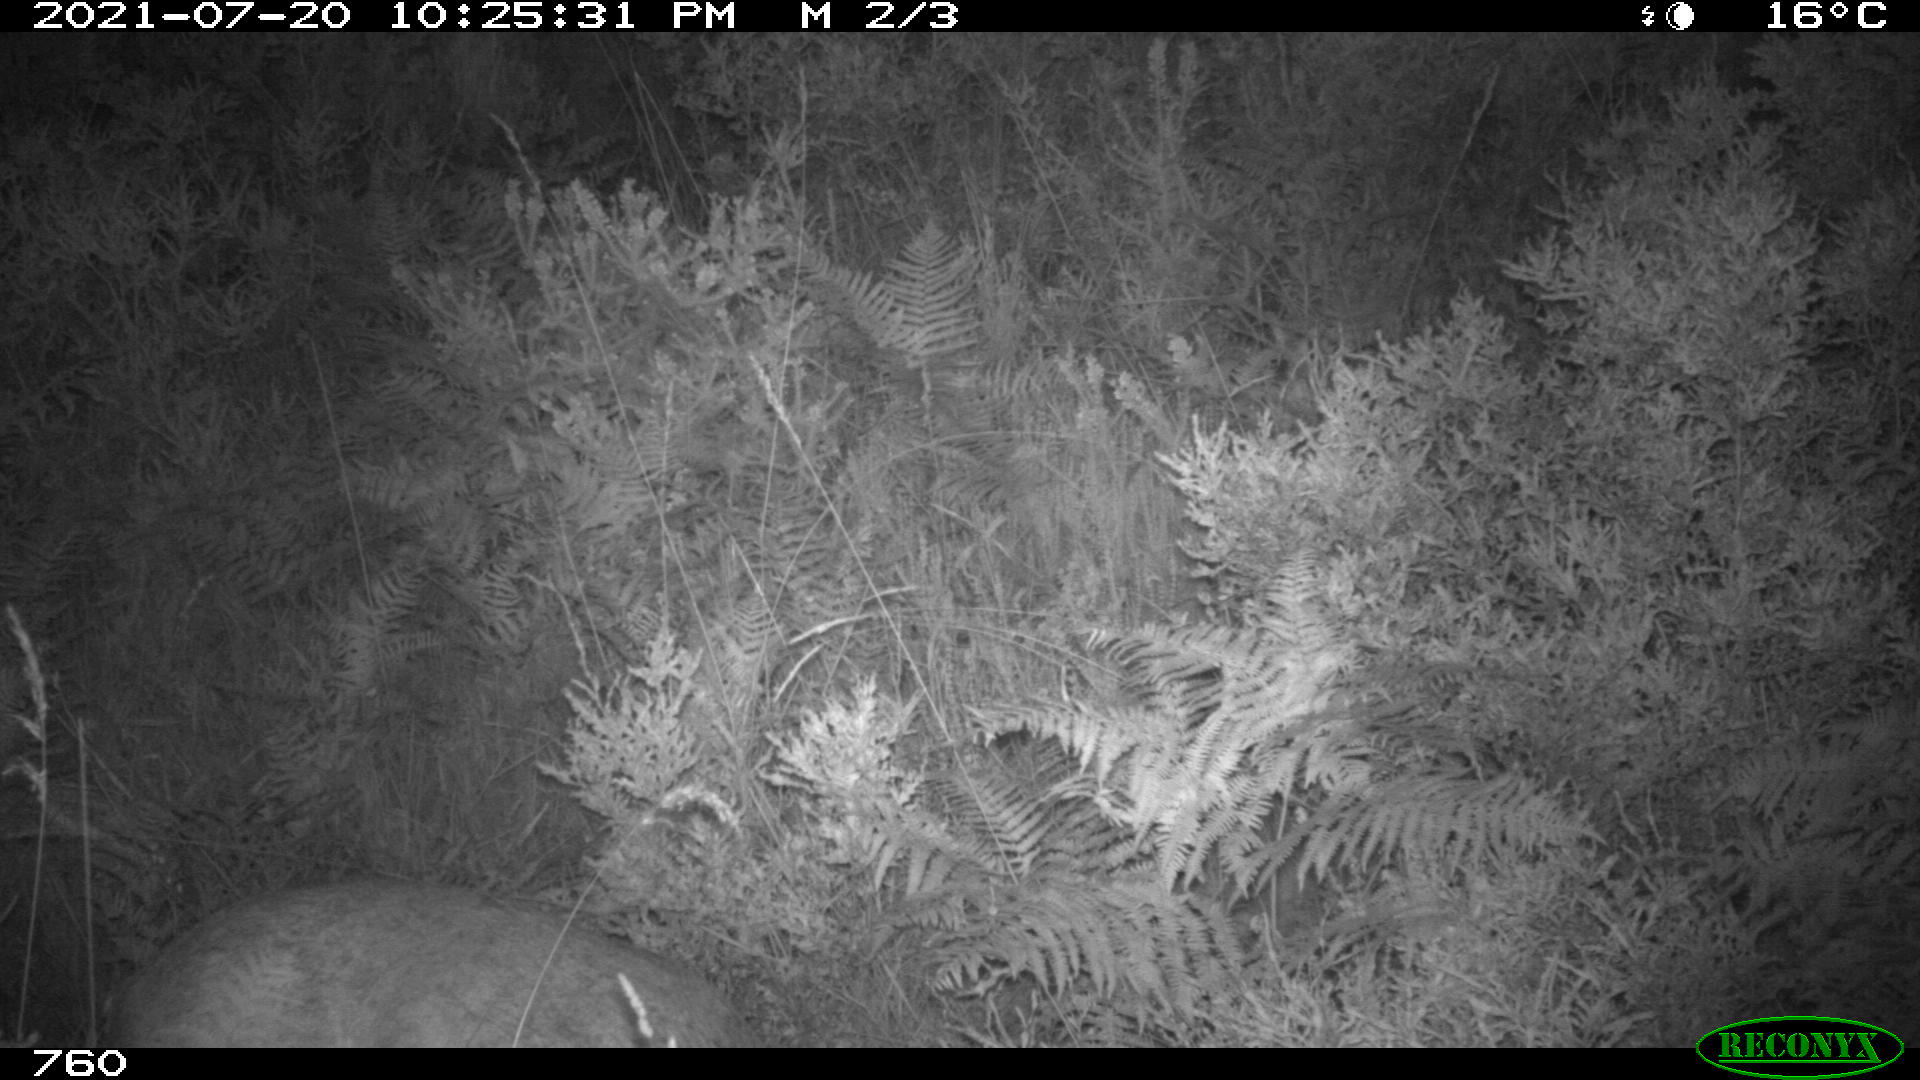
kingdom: Animalia
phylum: Chordata
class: Mammalia
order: Artiodactyla
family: Cervidae
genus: Capreolus
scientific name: Capreolus capreolus
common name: Western roe deer
